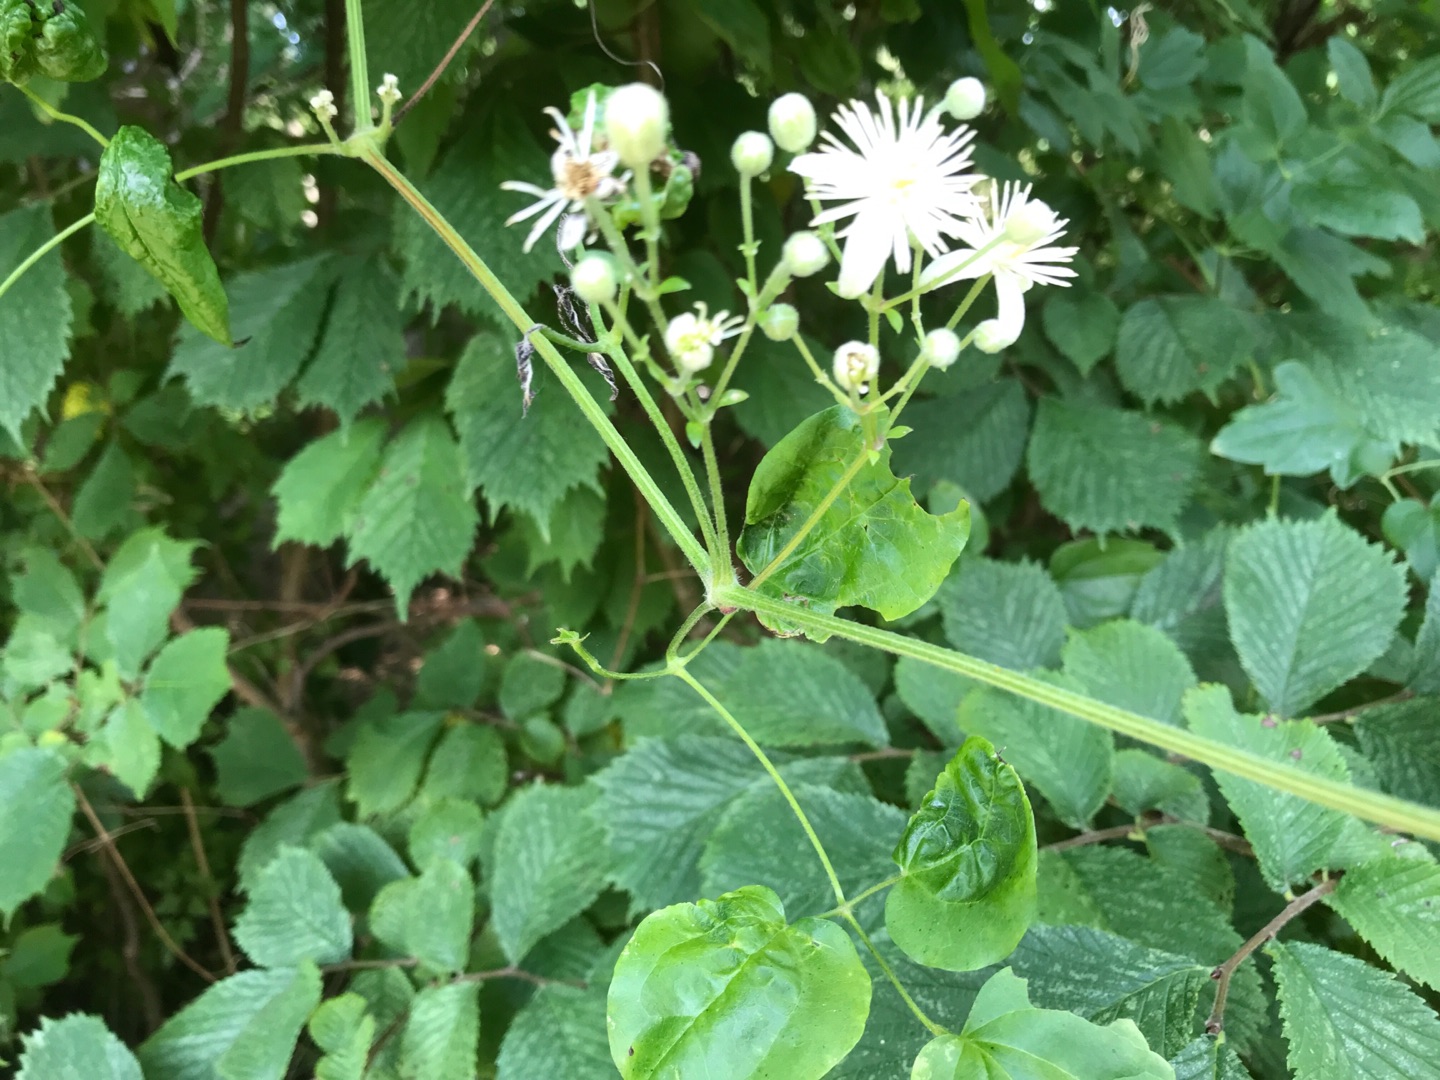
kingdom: Plantae
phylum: Tracheophyta
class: Magnoliopsida
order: Ranunculales
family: Ranunculaceae
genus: Clematis
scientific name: Clematis vitalba
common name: Skovranke
